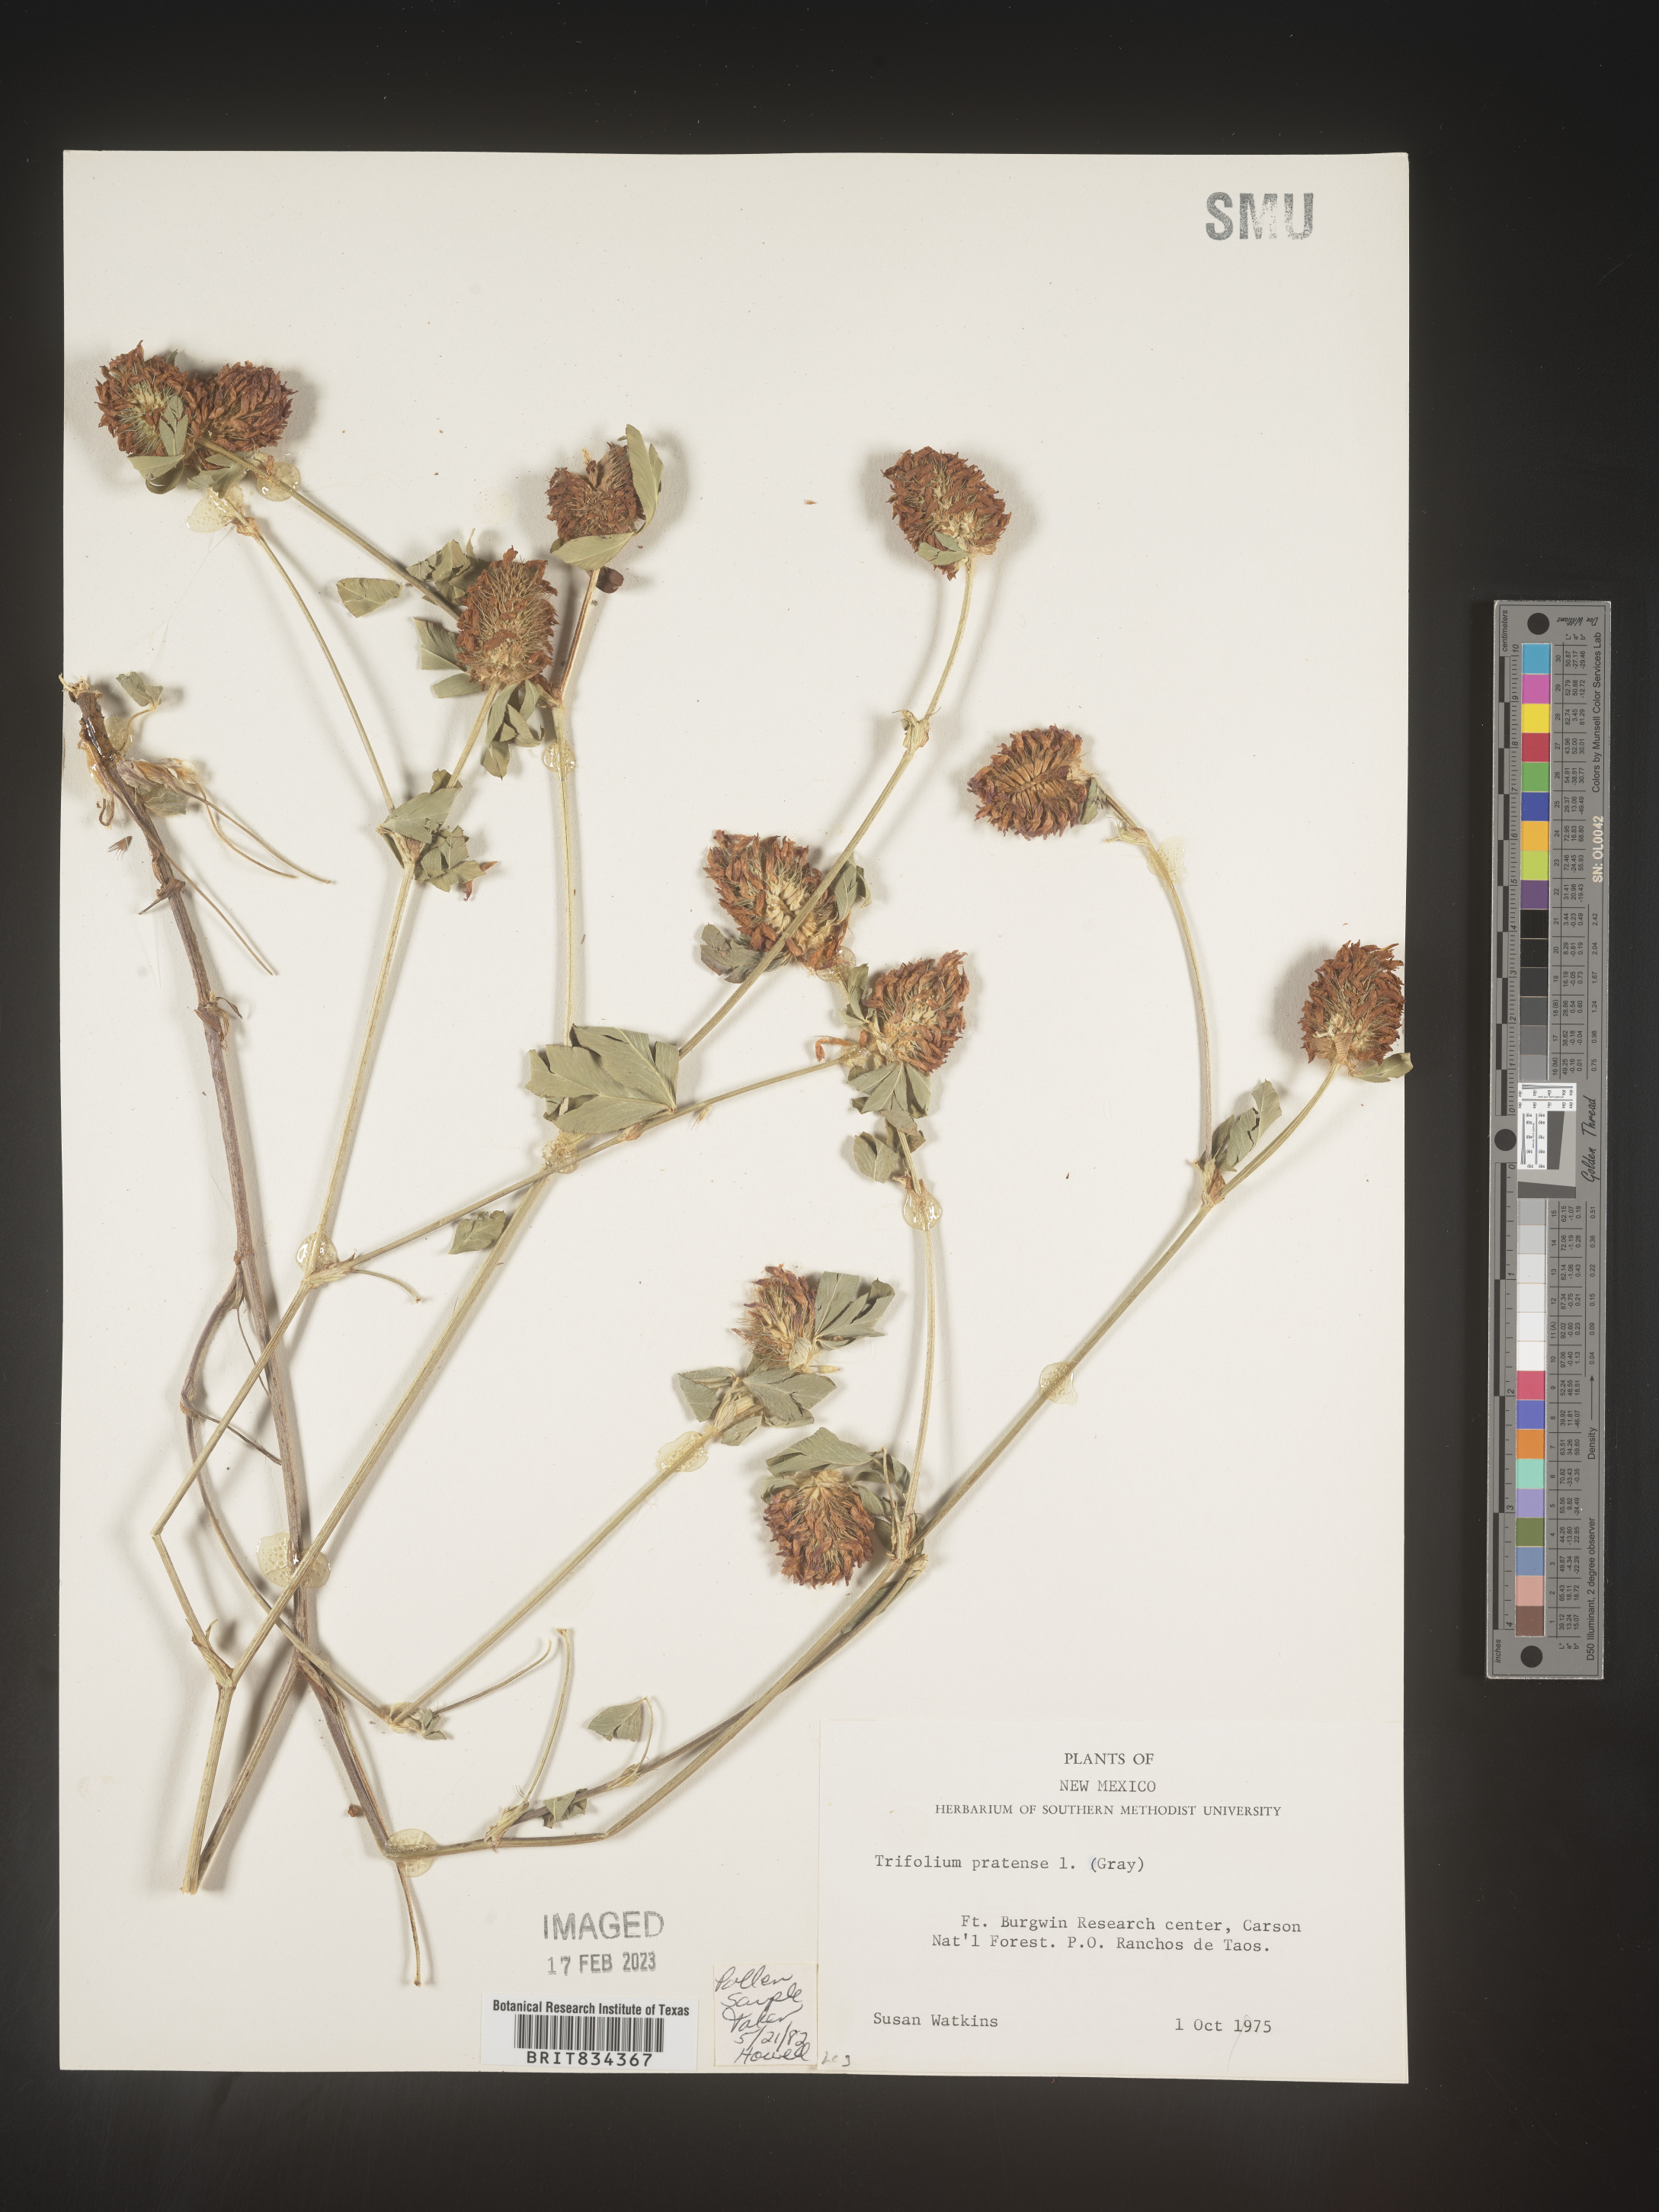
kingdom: Plantae
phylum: Tracheophyta
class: Magnoliopsida
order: Fabales
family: Fabaceae
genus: Trifolium
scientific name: Trifolium pratense
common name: Red clover
